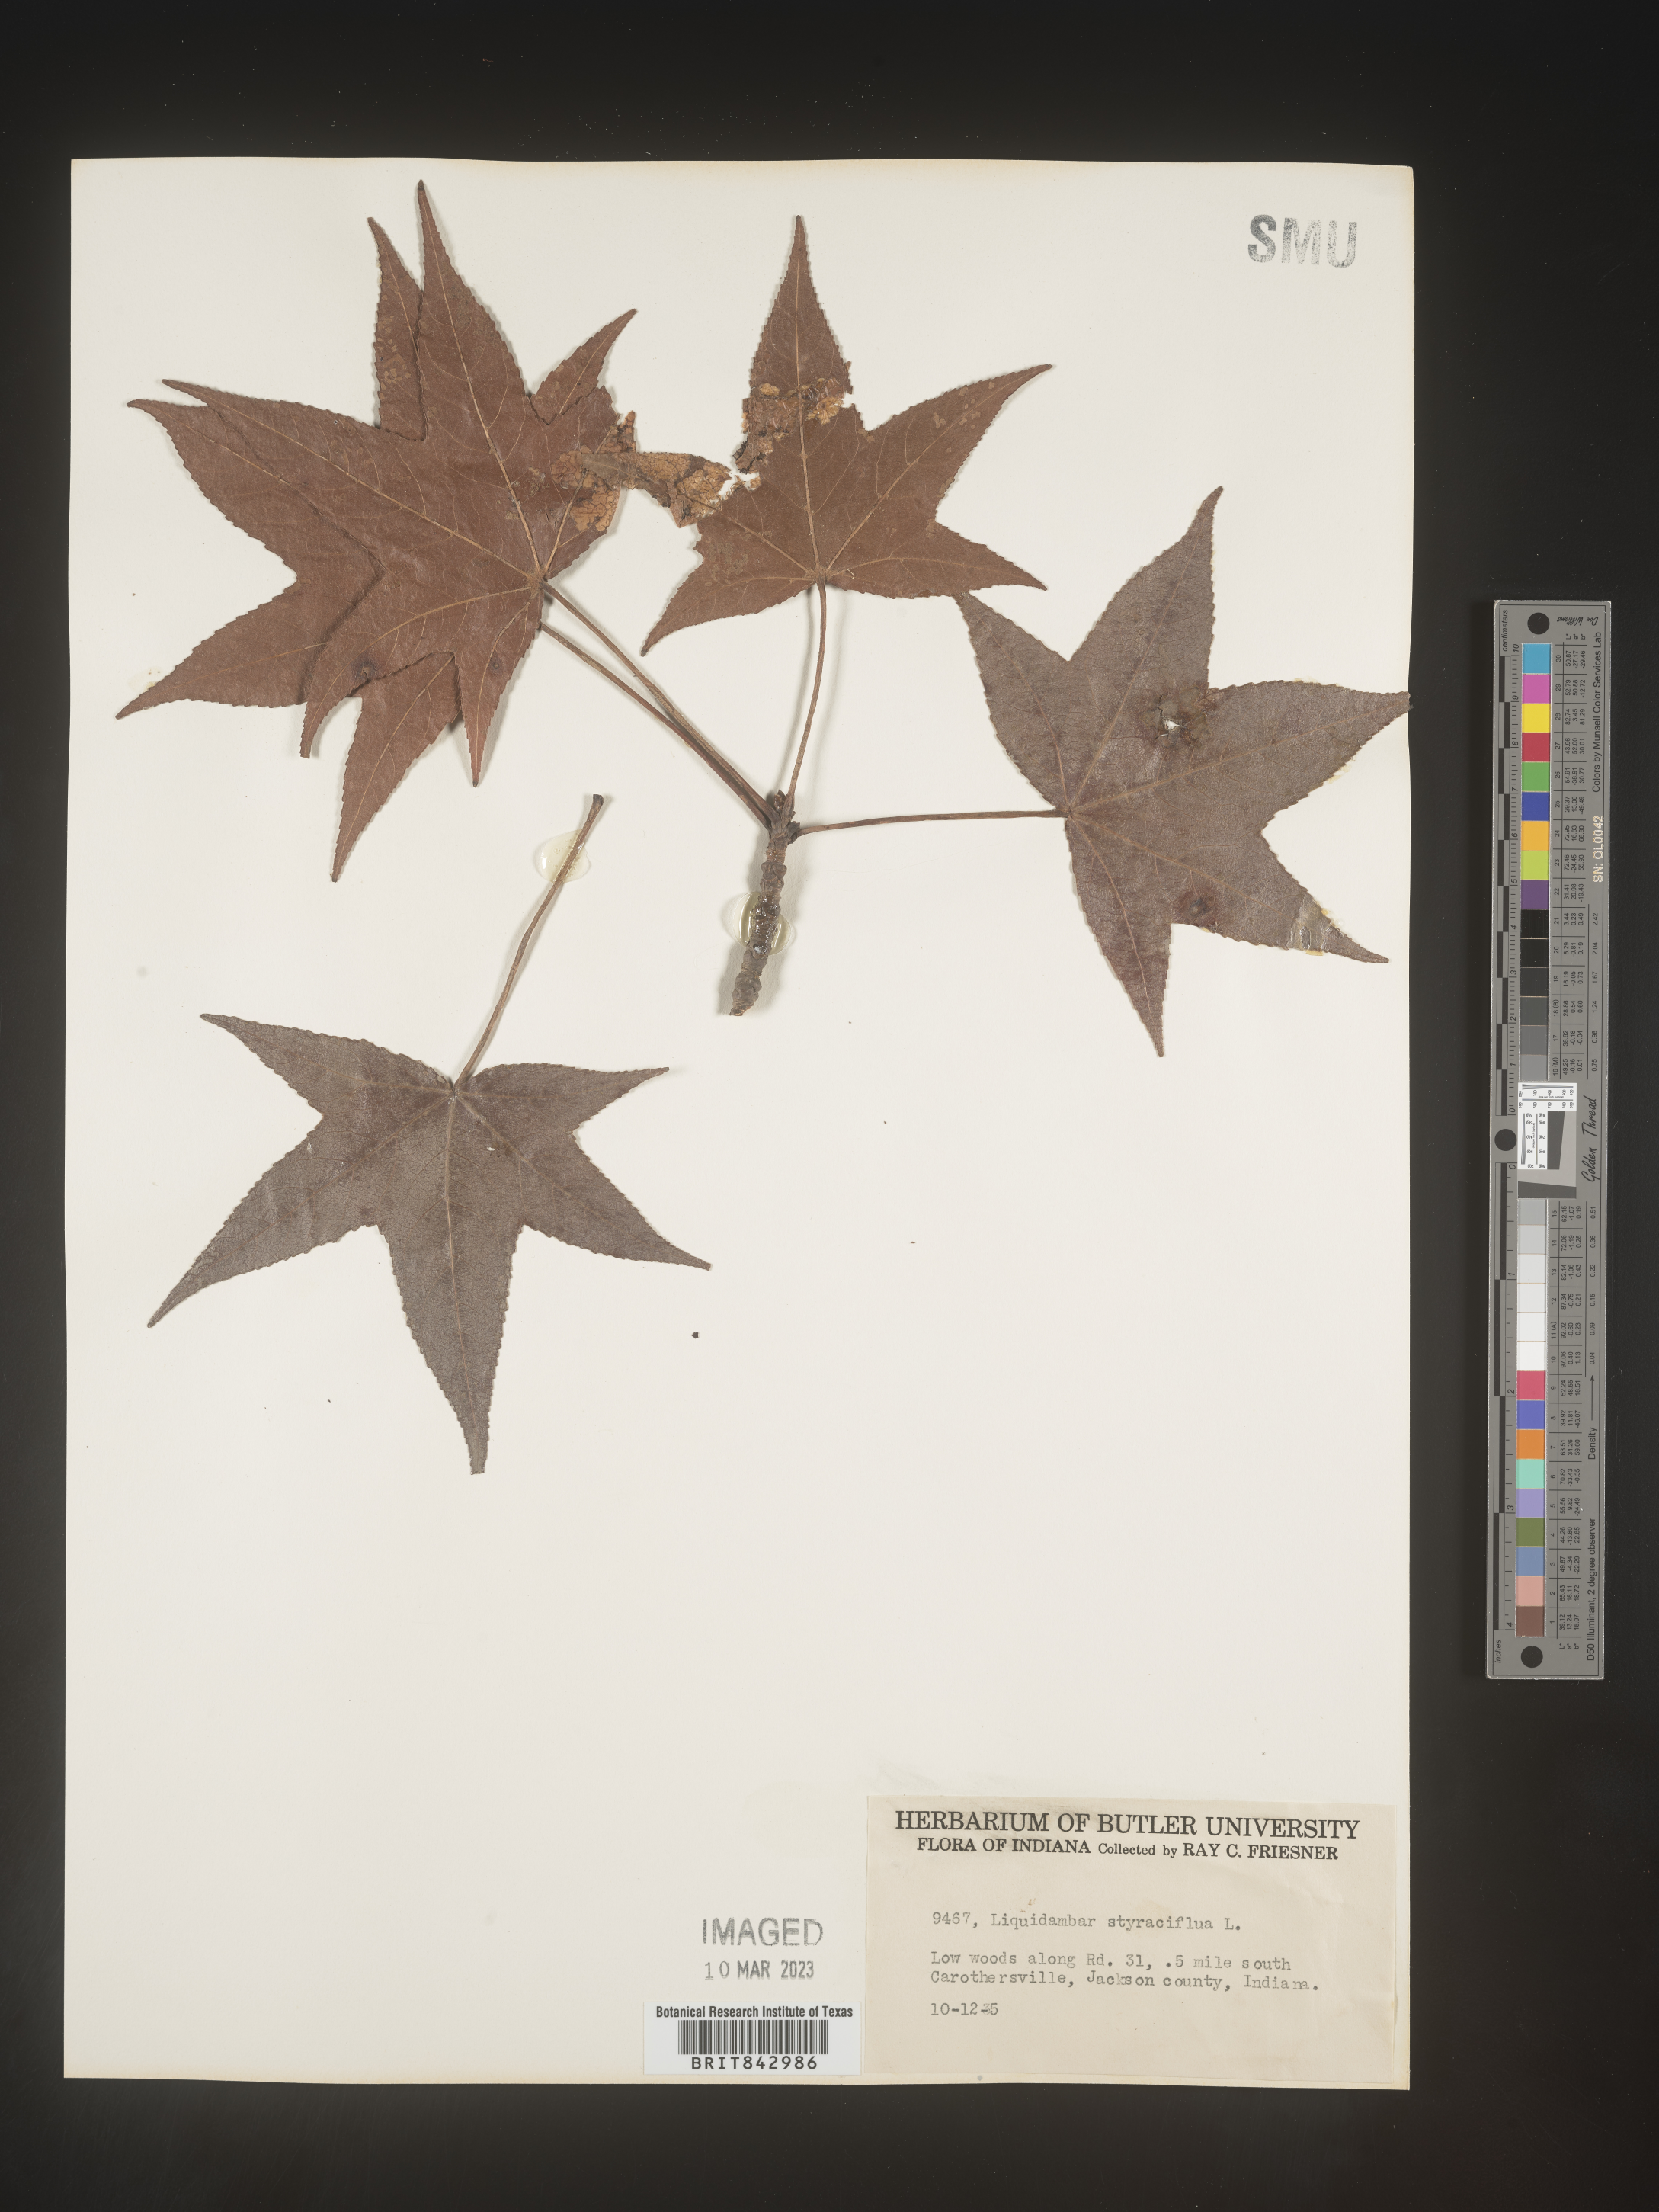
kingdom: Plantae
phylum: Tracheophyta
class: Magnoliopsida
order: Saxifragales
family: Altingiaceae
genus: Liquidambar
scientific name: Liquidambar
